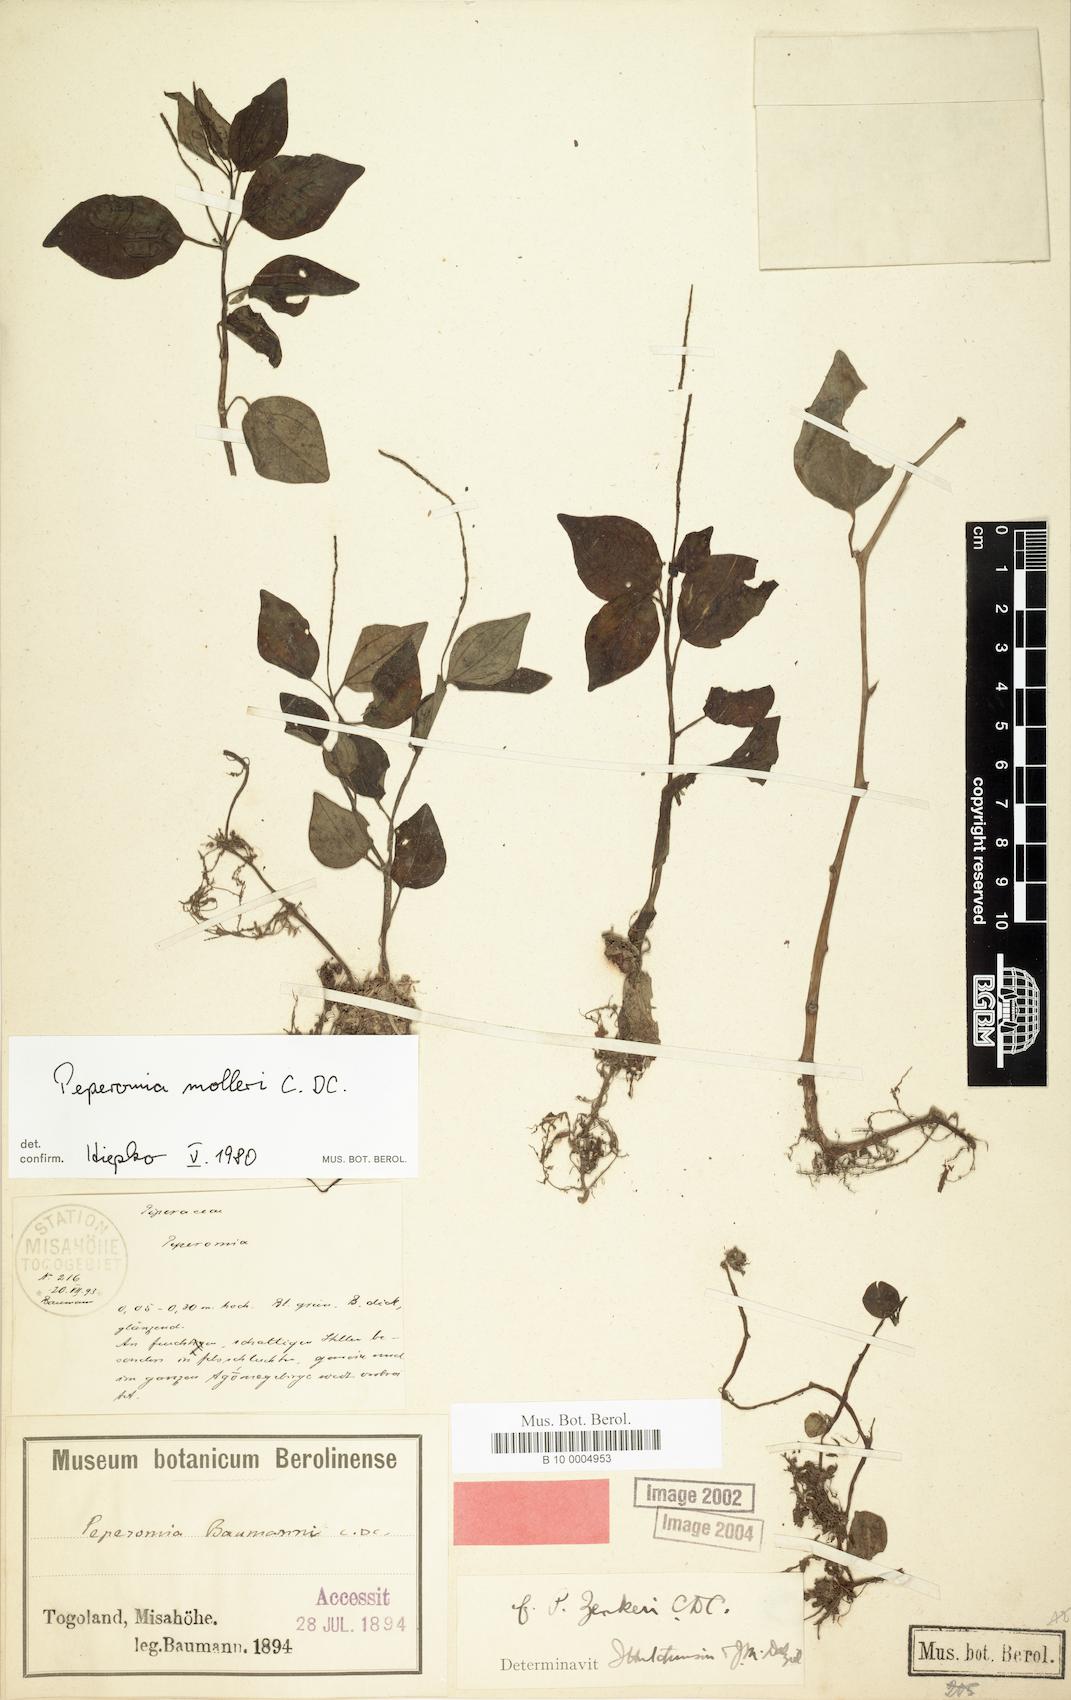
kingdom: Plantae
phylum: Tracheophyta
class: Magnoliopsida
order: Piperales
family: Piperaceae
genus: Peperomia
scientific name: Peperomia molleri
